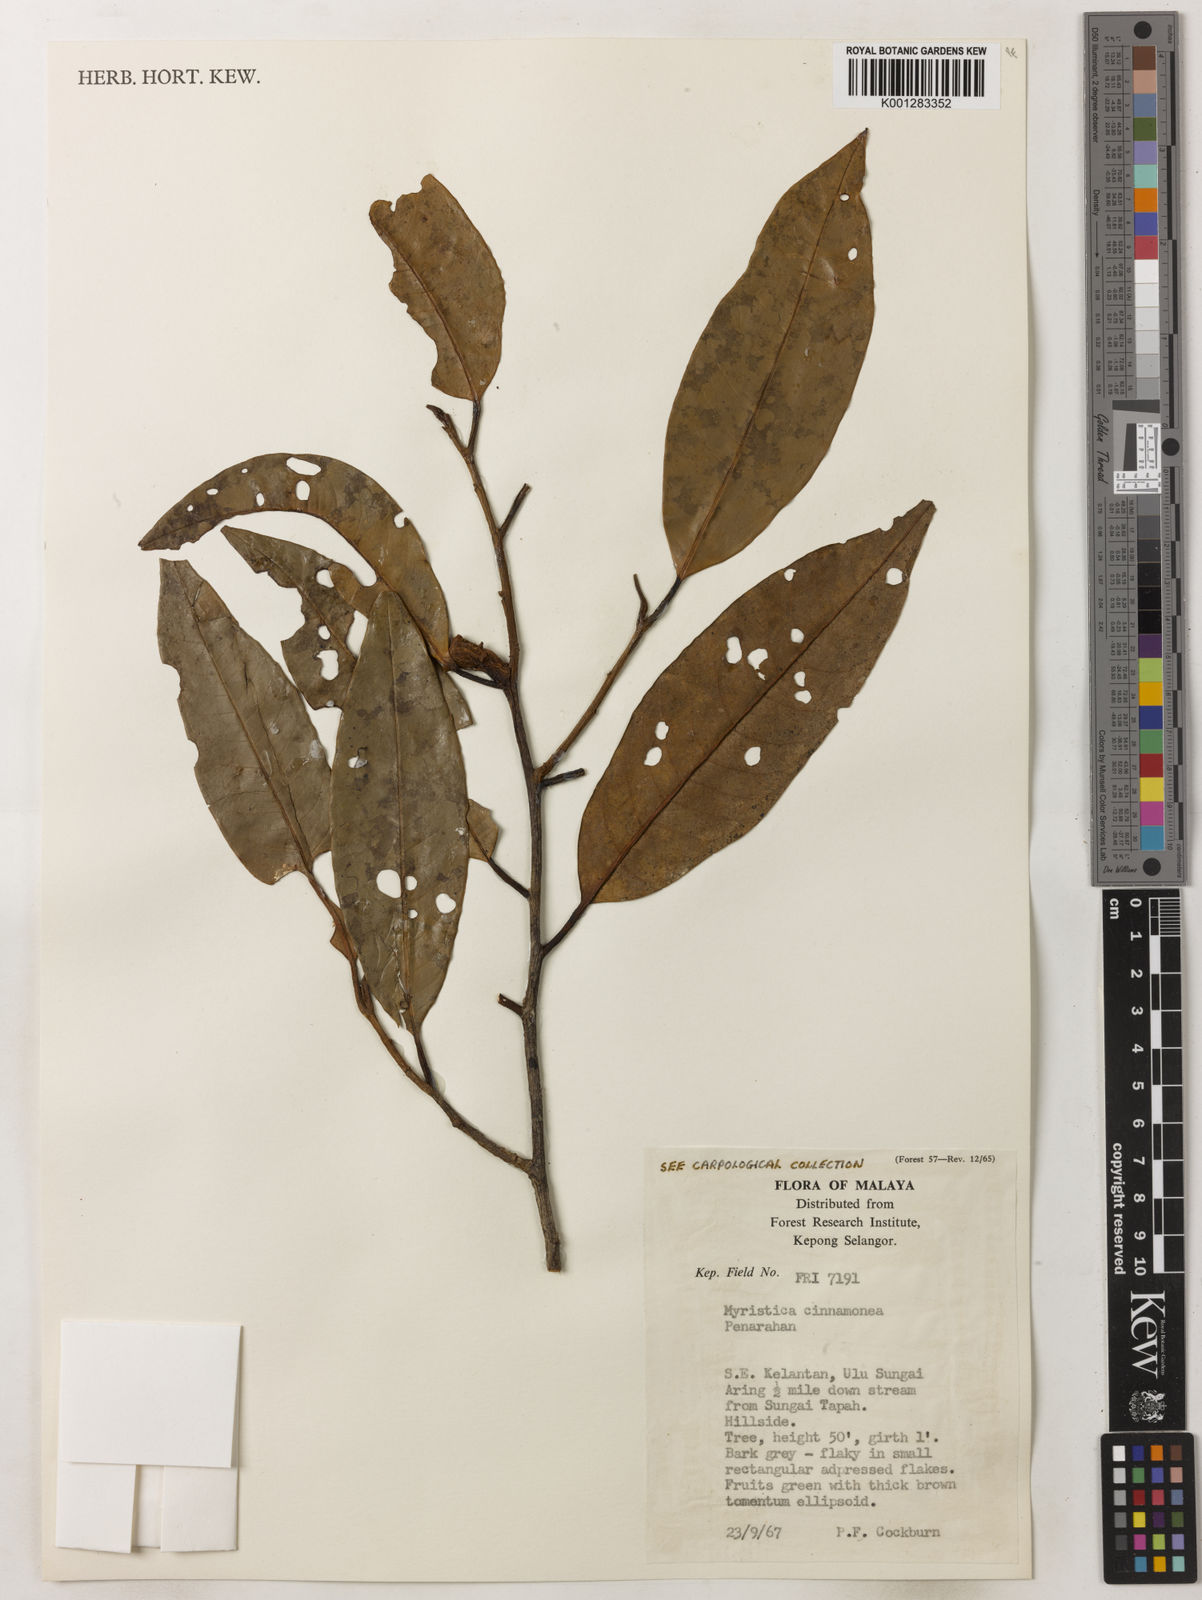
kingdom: Plantae
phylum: Tracheophyta
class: Magnoliopsida
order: Magnoliales
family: Myristicaceae
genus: Myristica
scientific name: Myristica cinnamomea
